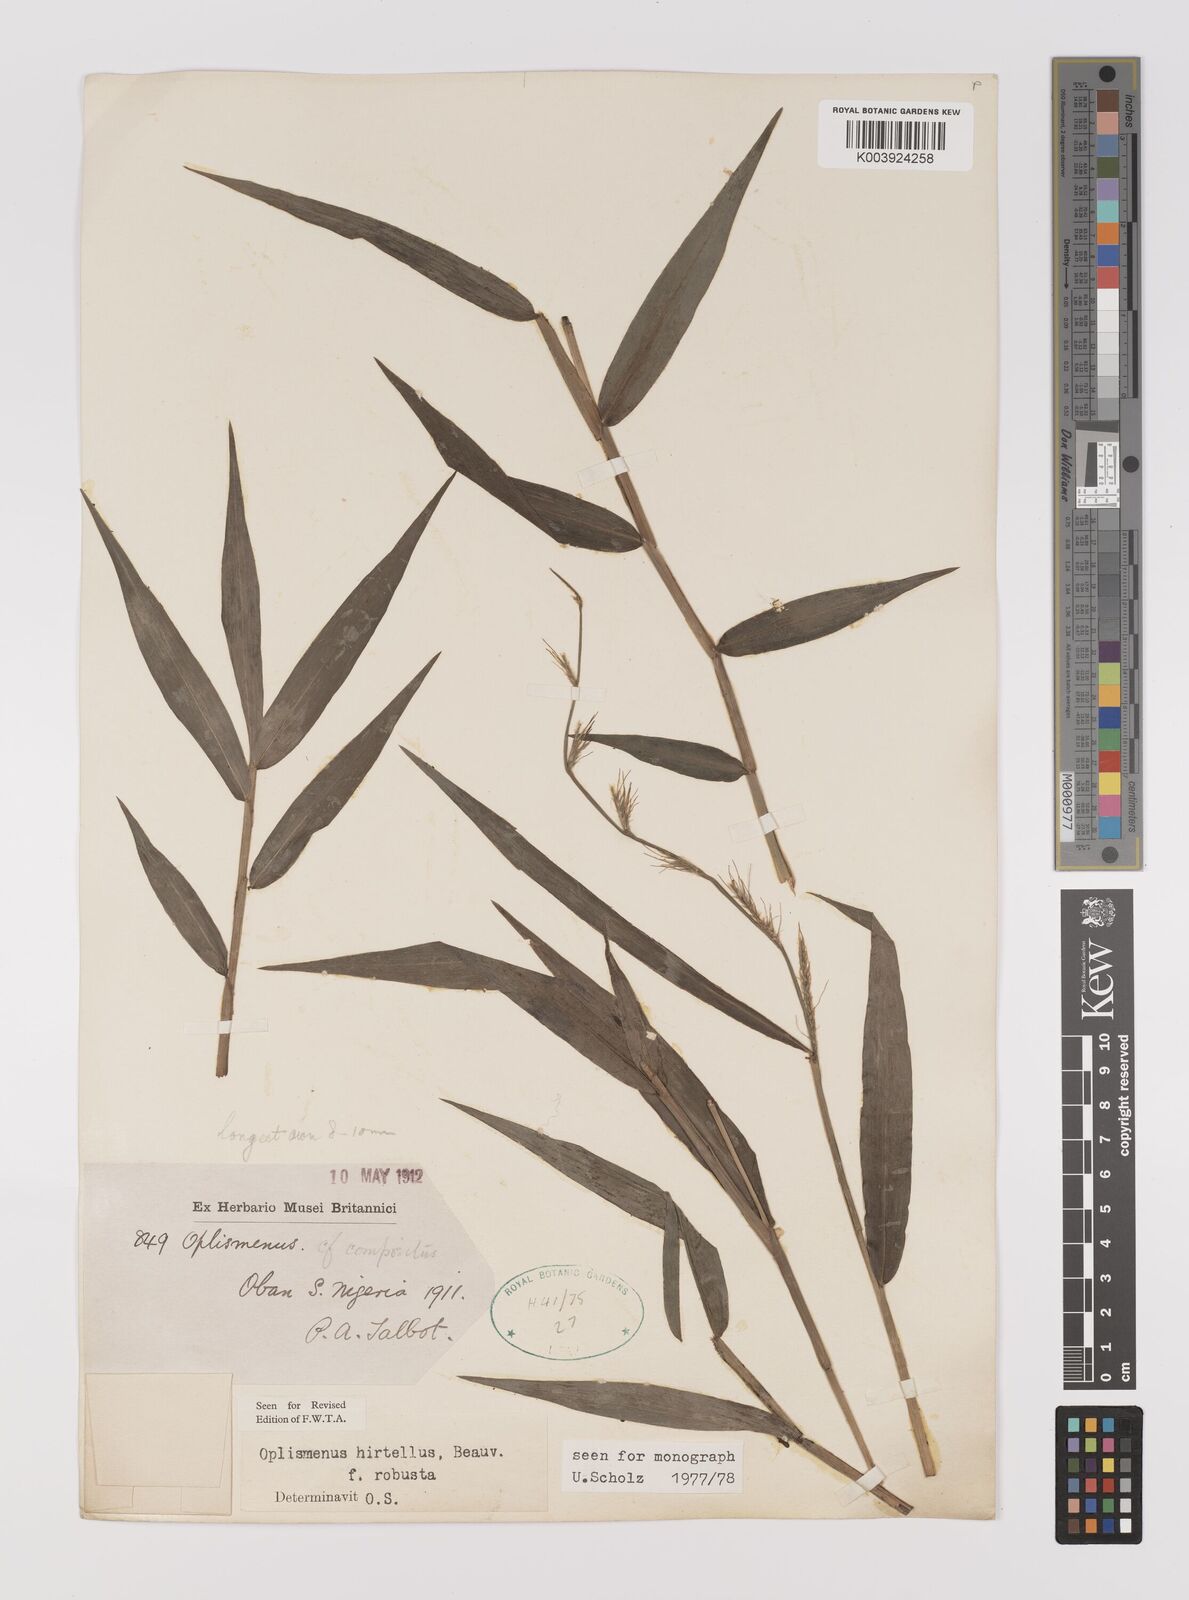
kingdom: Plantae
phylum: Tracheophyta
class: Liliopsida
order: Poales
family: Poaceae
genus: Oplismenus
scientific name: Oplismenus hirtellus
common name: Basketgrass
